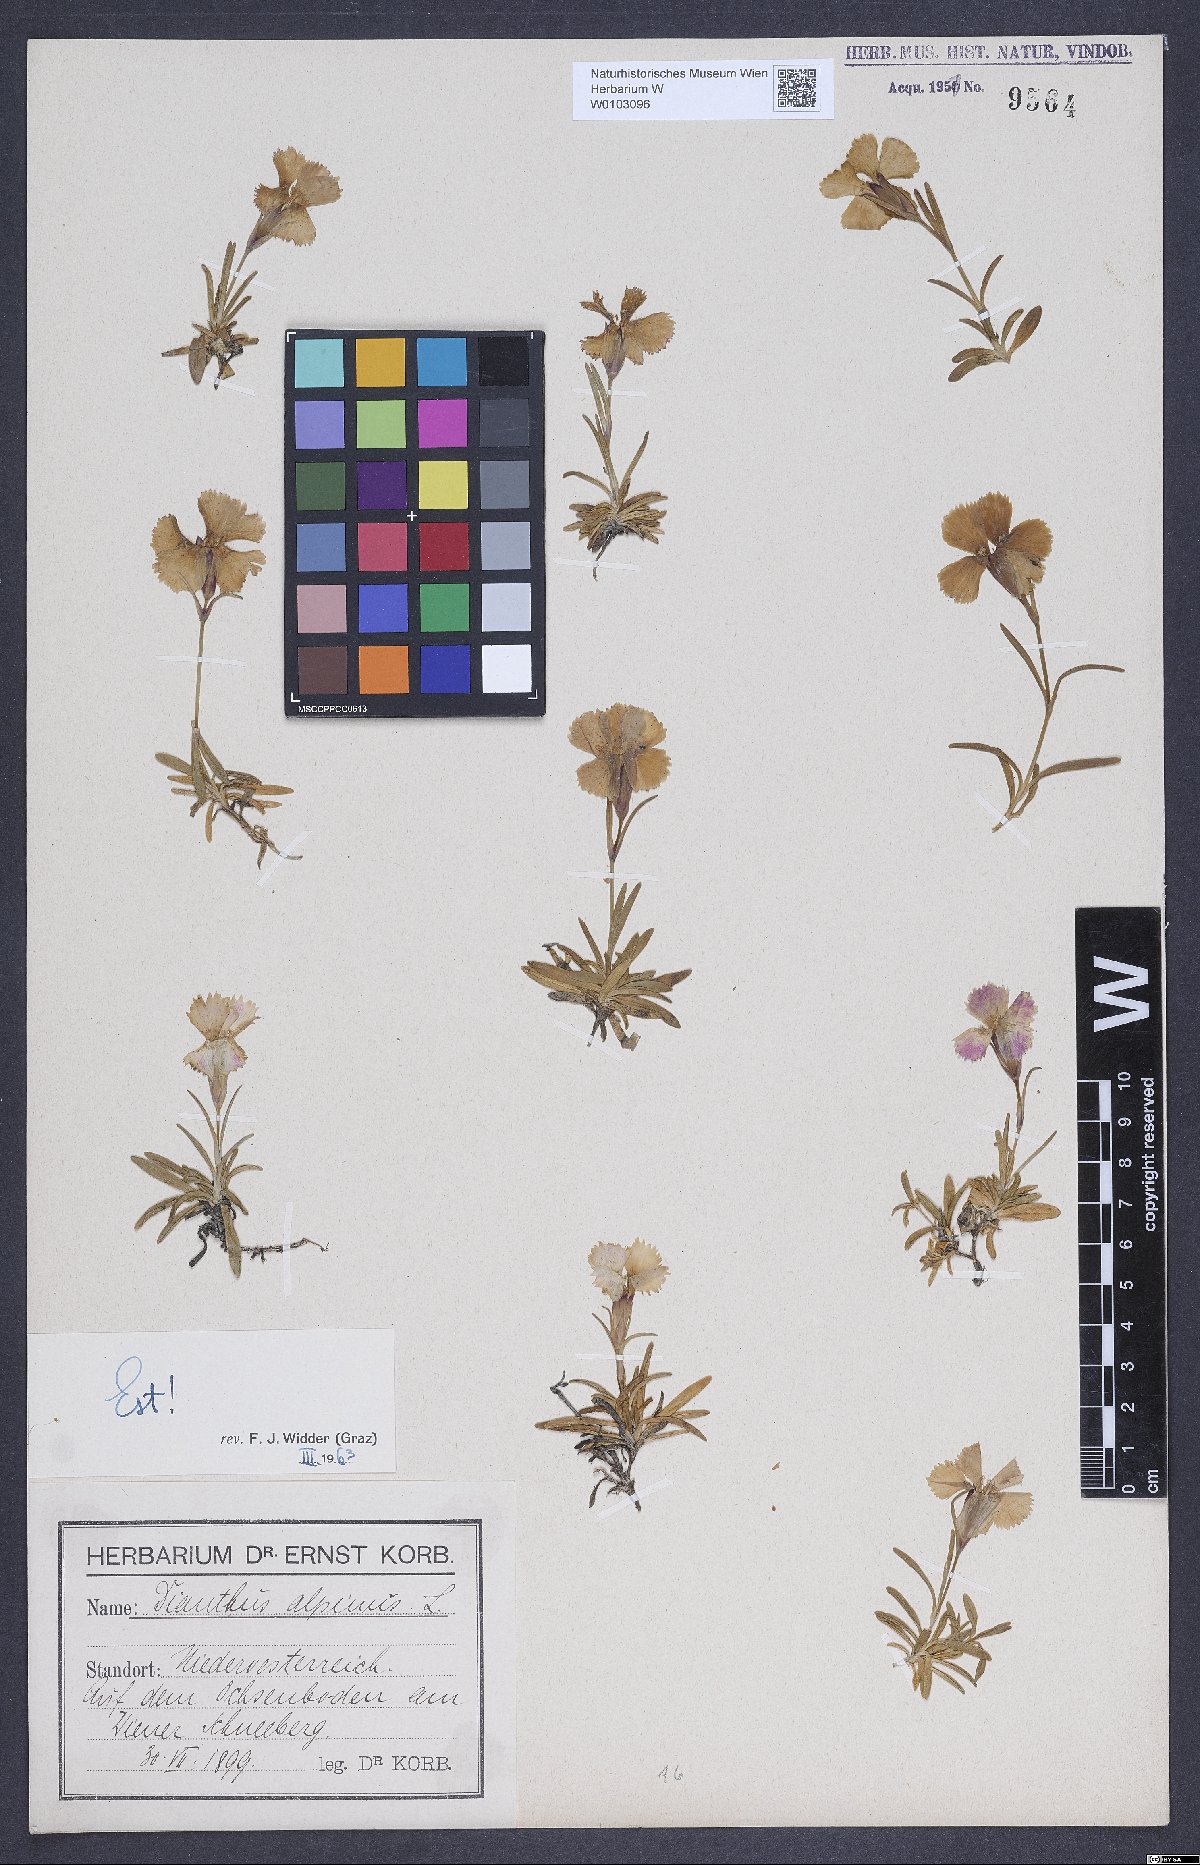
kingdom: Plantae
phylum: Tracheophyta
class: Magnoliopsida
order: Caryophyllales
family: Caryophyllaceae
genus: Dianthus
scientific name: Dianthus alpinus
